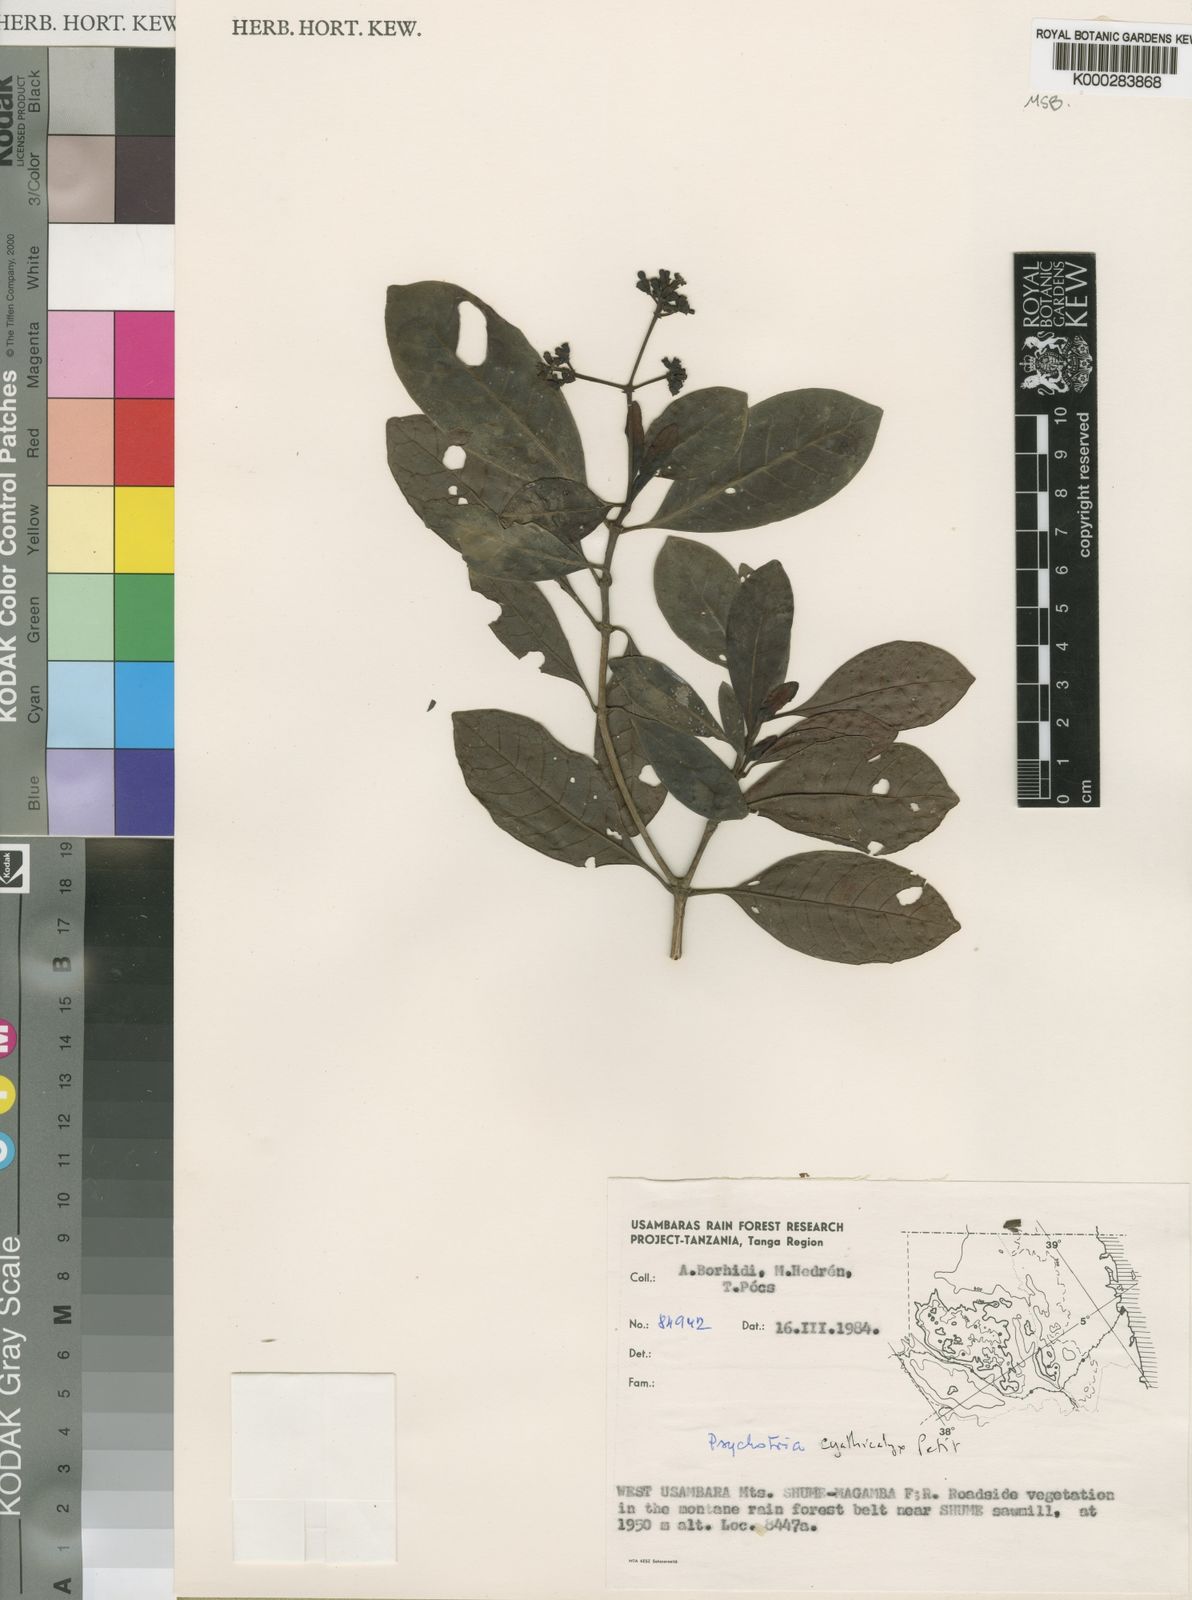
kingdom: Plantae
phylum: Tracheophyta
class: Magnoliopsida
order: Gentianales
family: Rubiaceae
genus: Psychotria
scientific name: Psychotria cyathicalyx
